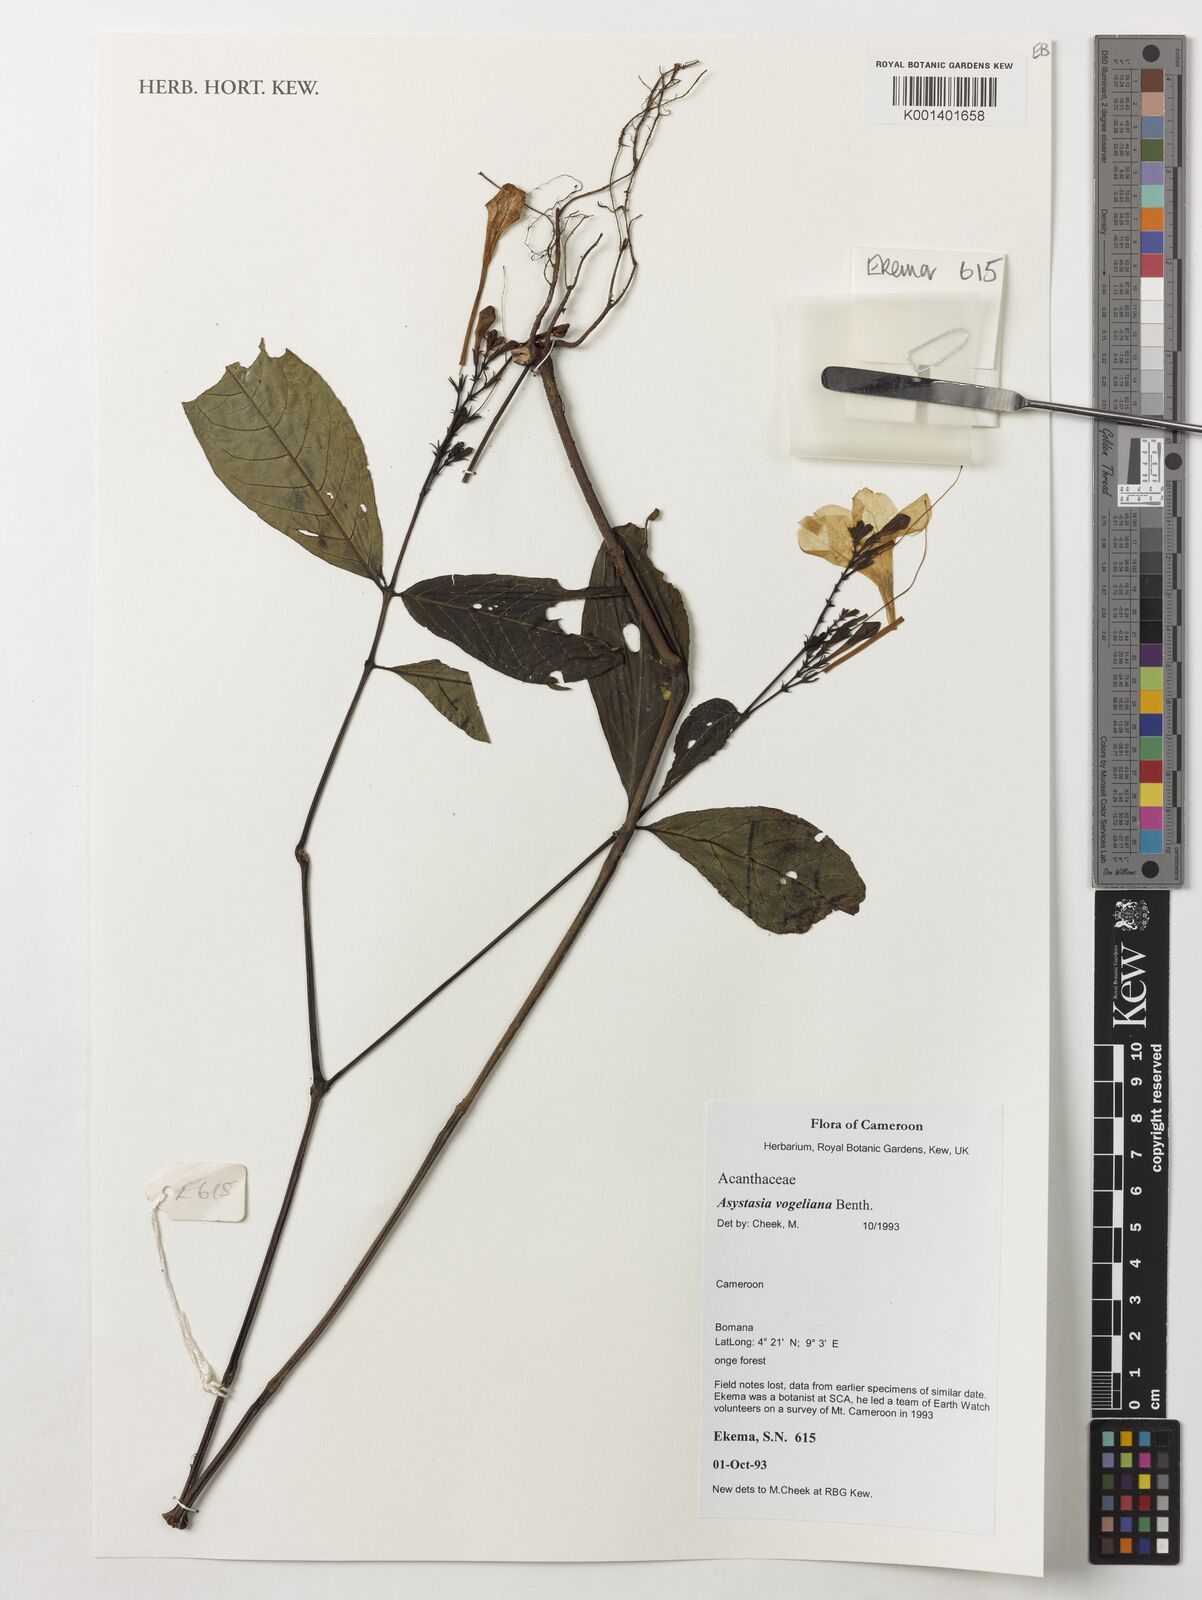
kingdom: Plantae
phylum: Tracheophyta
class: Magnoliopsida
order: Lamiales
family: Acanthaceae
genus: Asystasia
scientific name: Asystasia vogeliana
